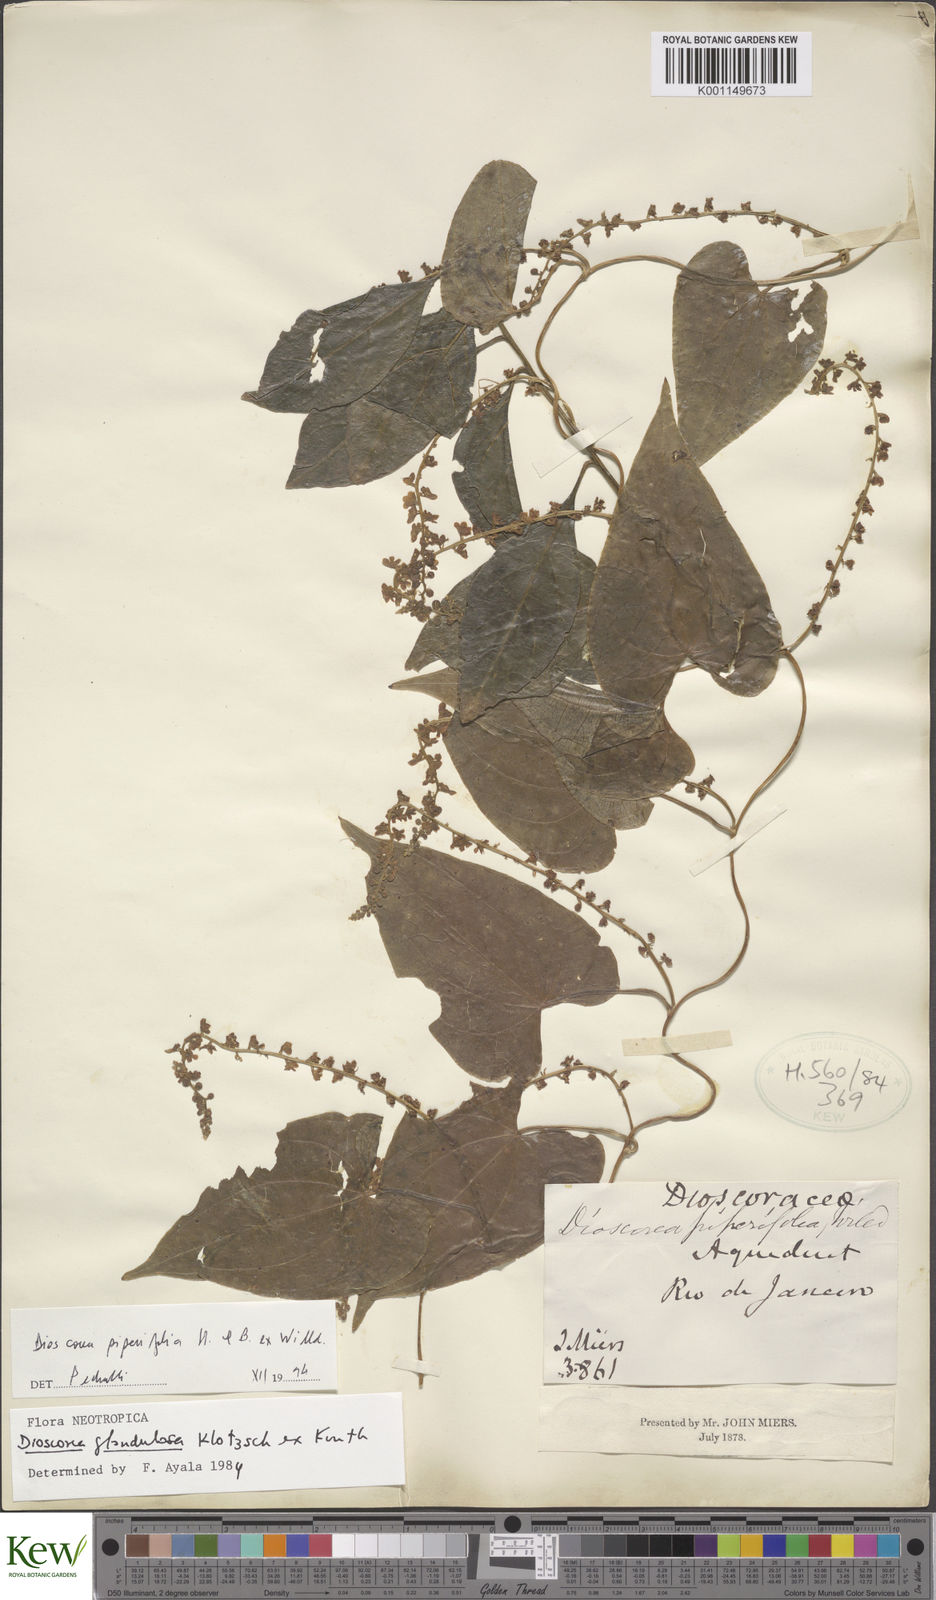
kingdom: Plantae
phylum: Tracheophyta
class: Liliopsida
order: Dioscoreales
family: Dioscoreaceae
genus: Dioscorea
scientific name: Dioscorea glandulosa
